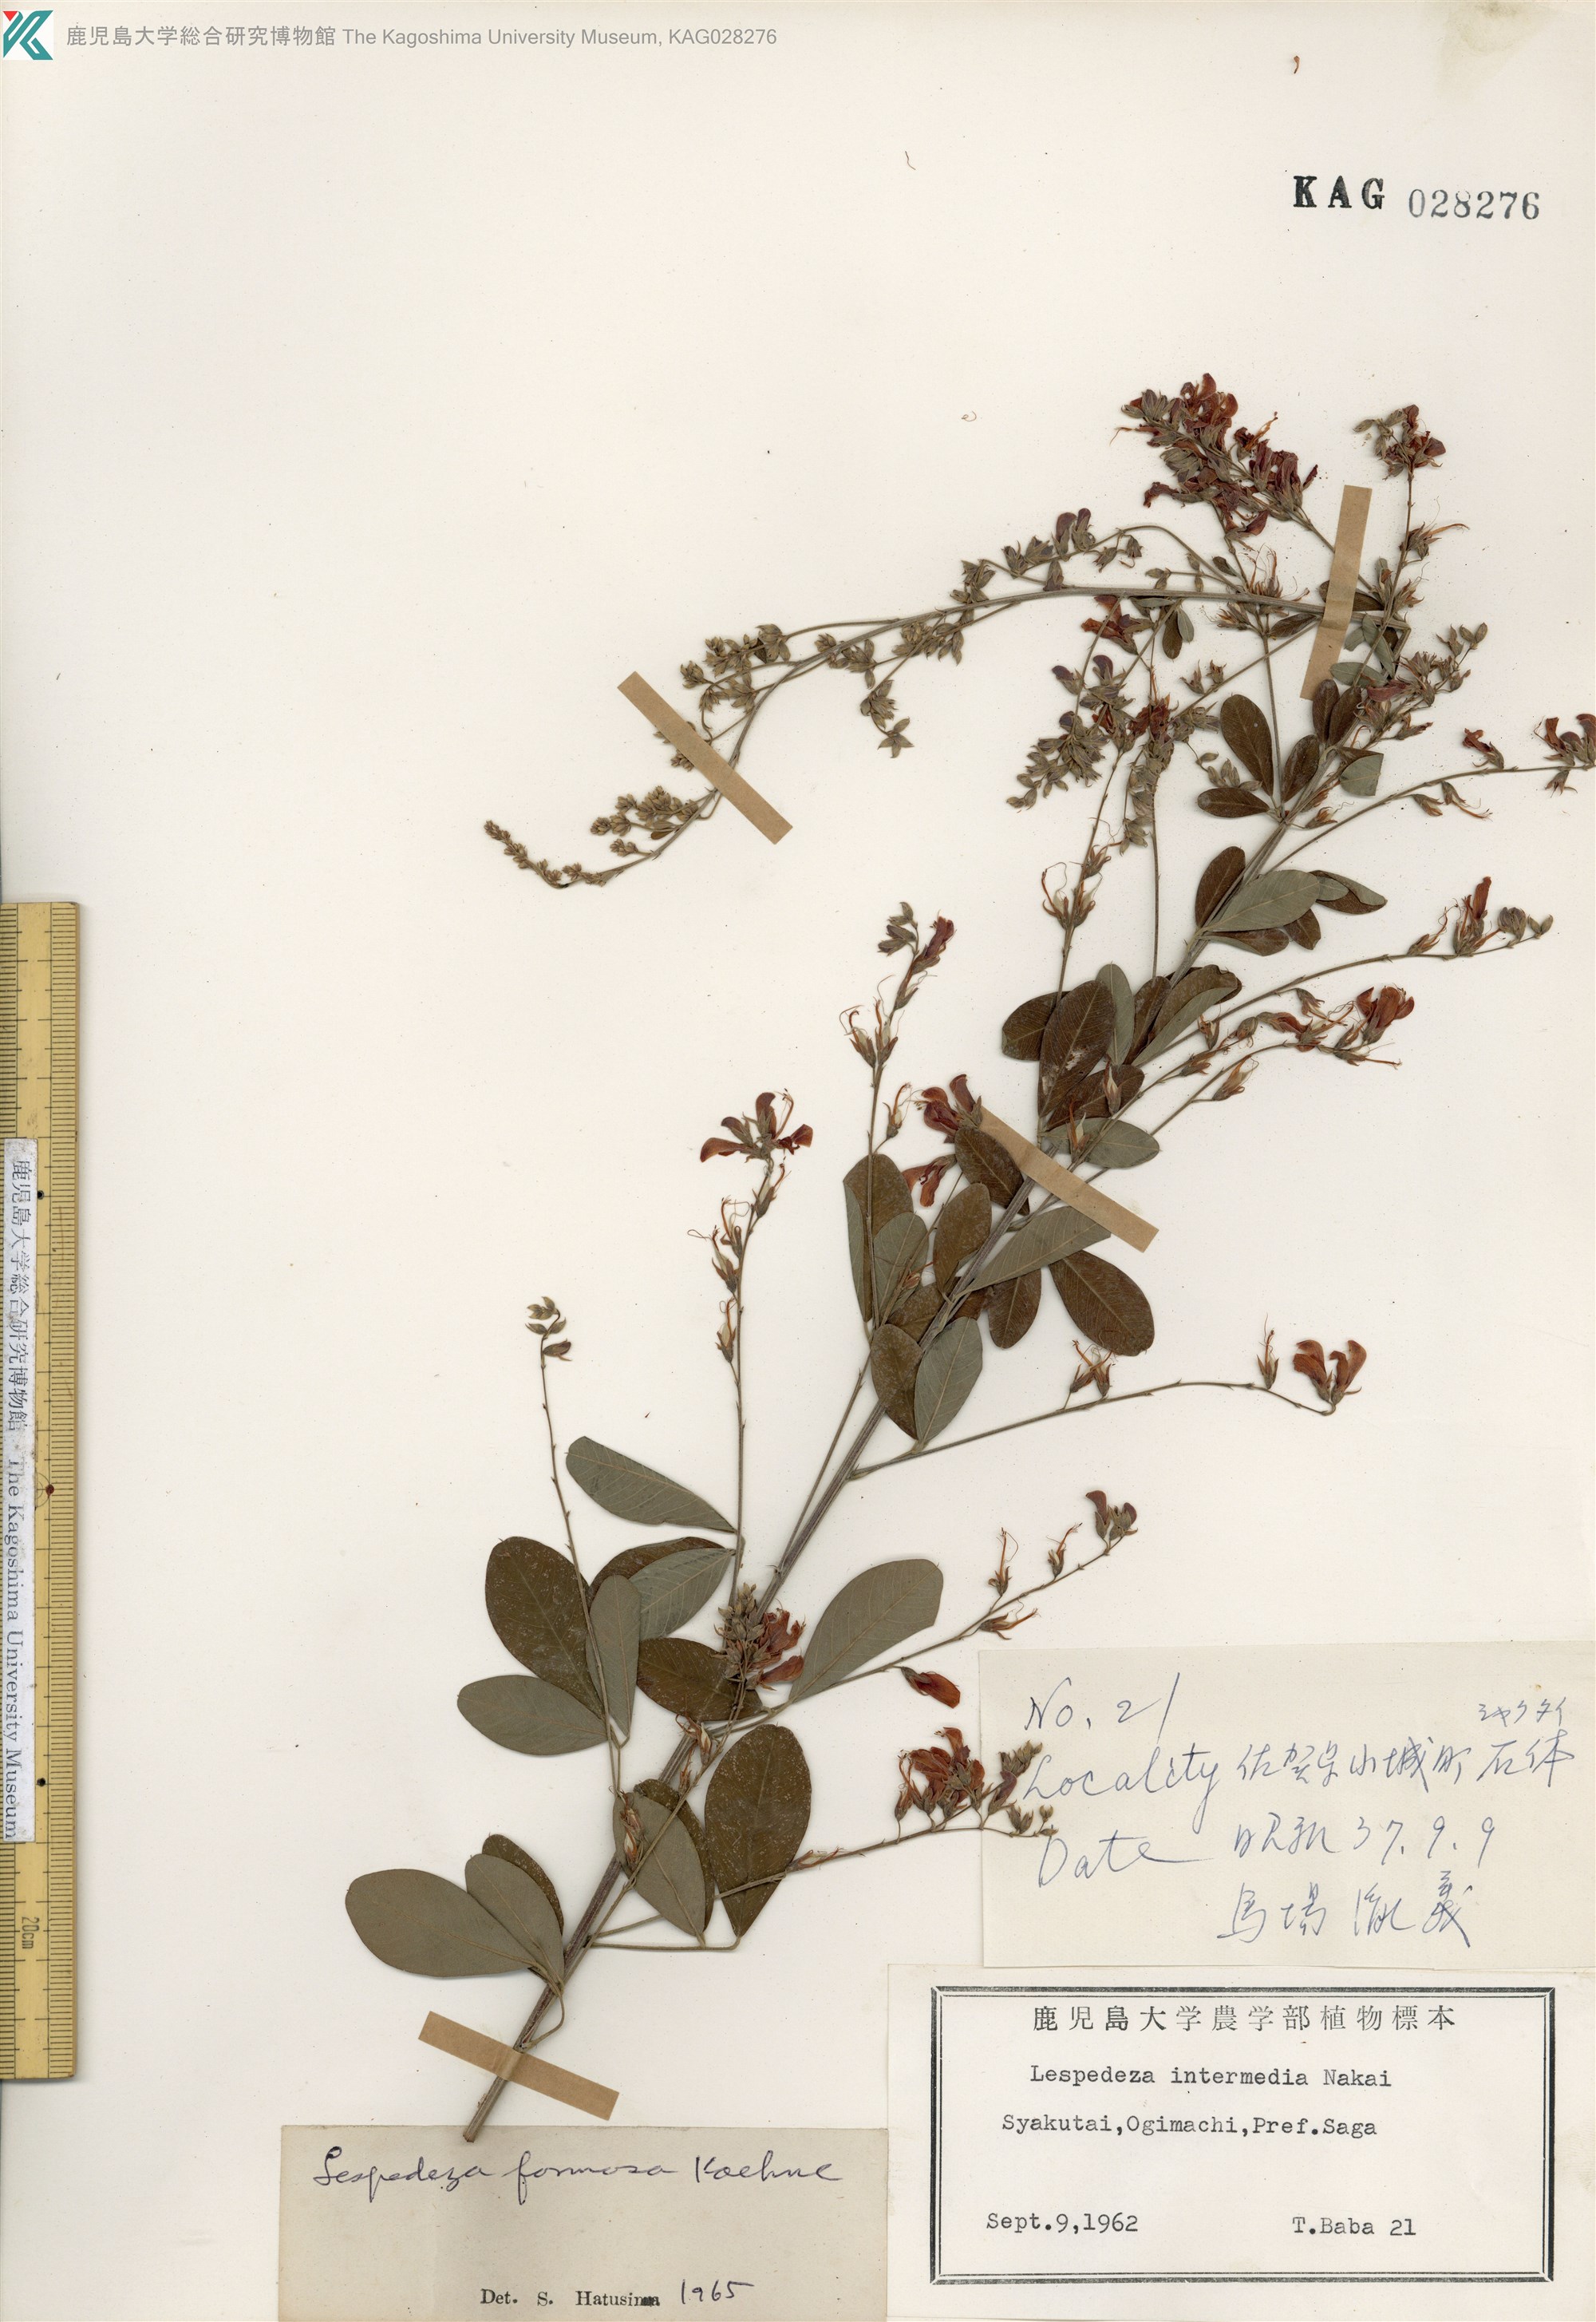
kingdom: Plantae
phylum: Tracheophyta
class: Magnoliopsida
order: Fabales
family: Fabaceae
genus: Lespedeza
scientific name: Lespedeza thunbergii
